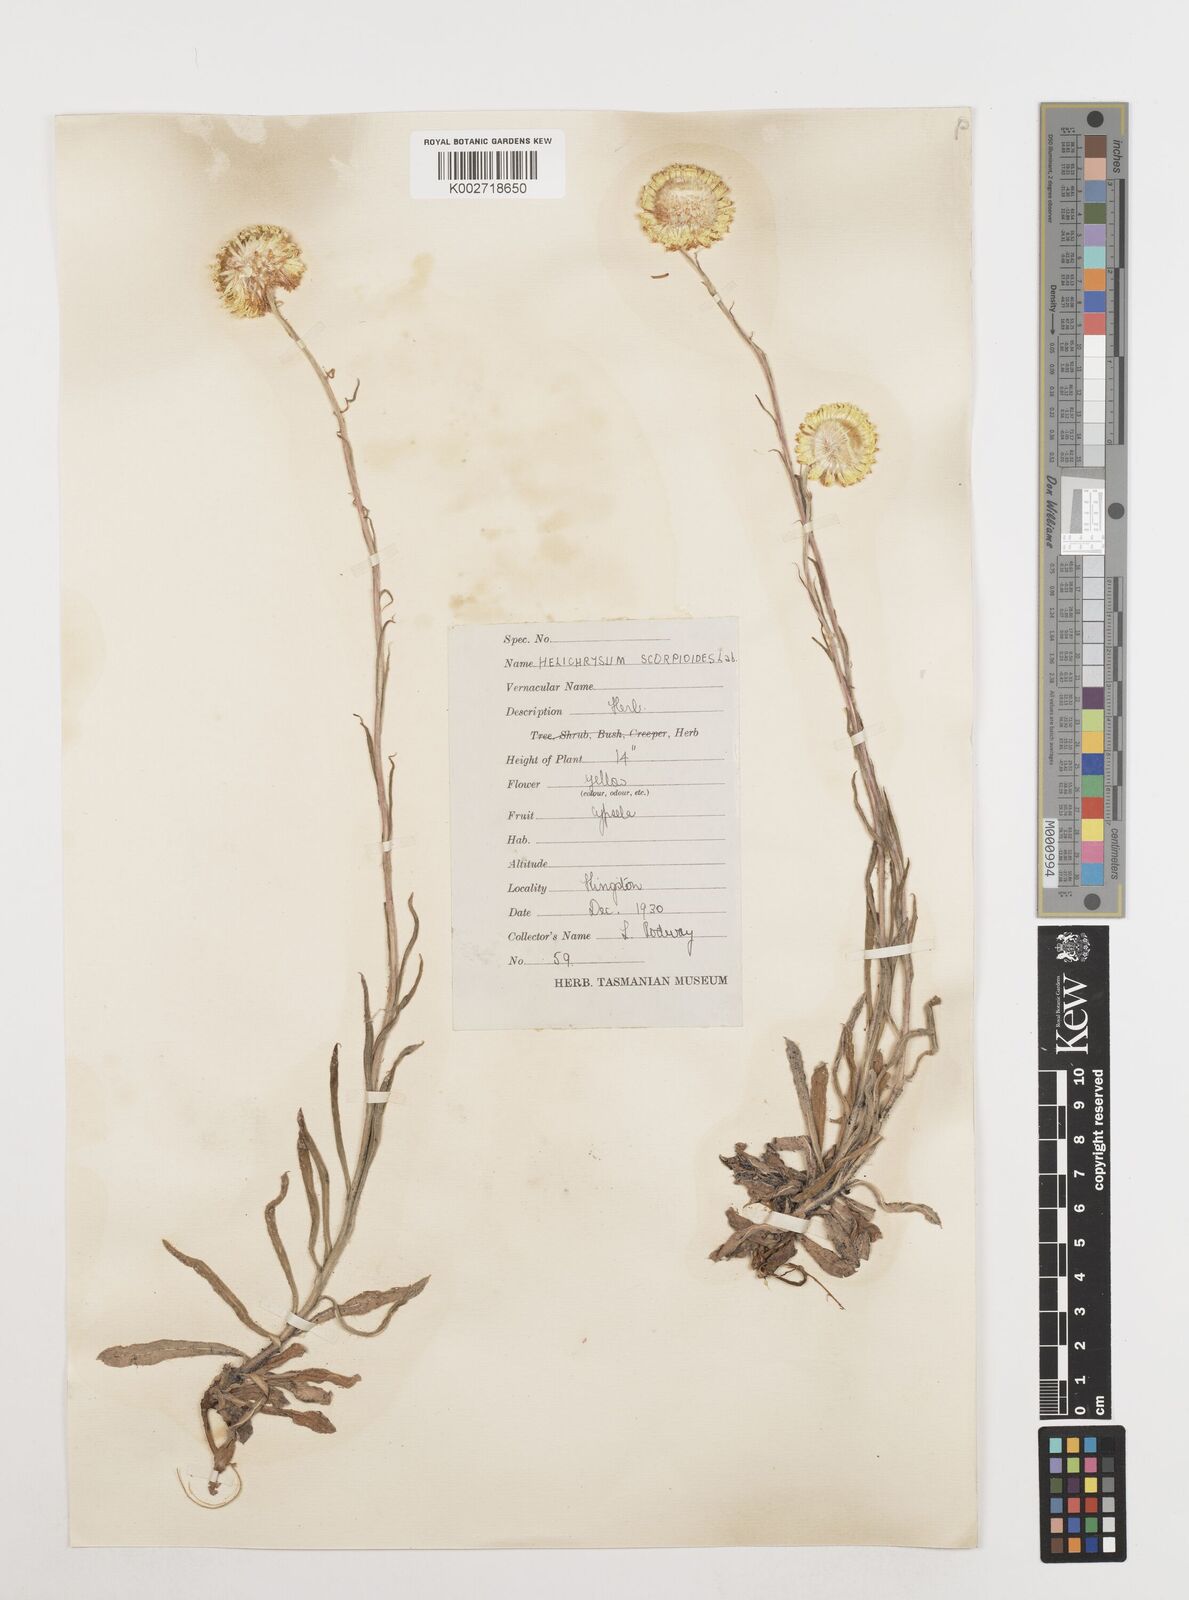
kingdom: Plantae
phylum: Tracheophyta
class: Magnoliopsida
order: Asterales
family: Asteraceae
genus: Coronidium
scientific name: Coronidium scorpioides
